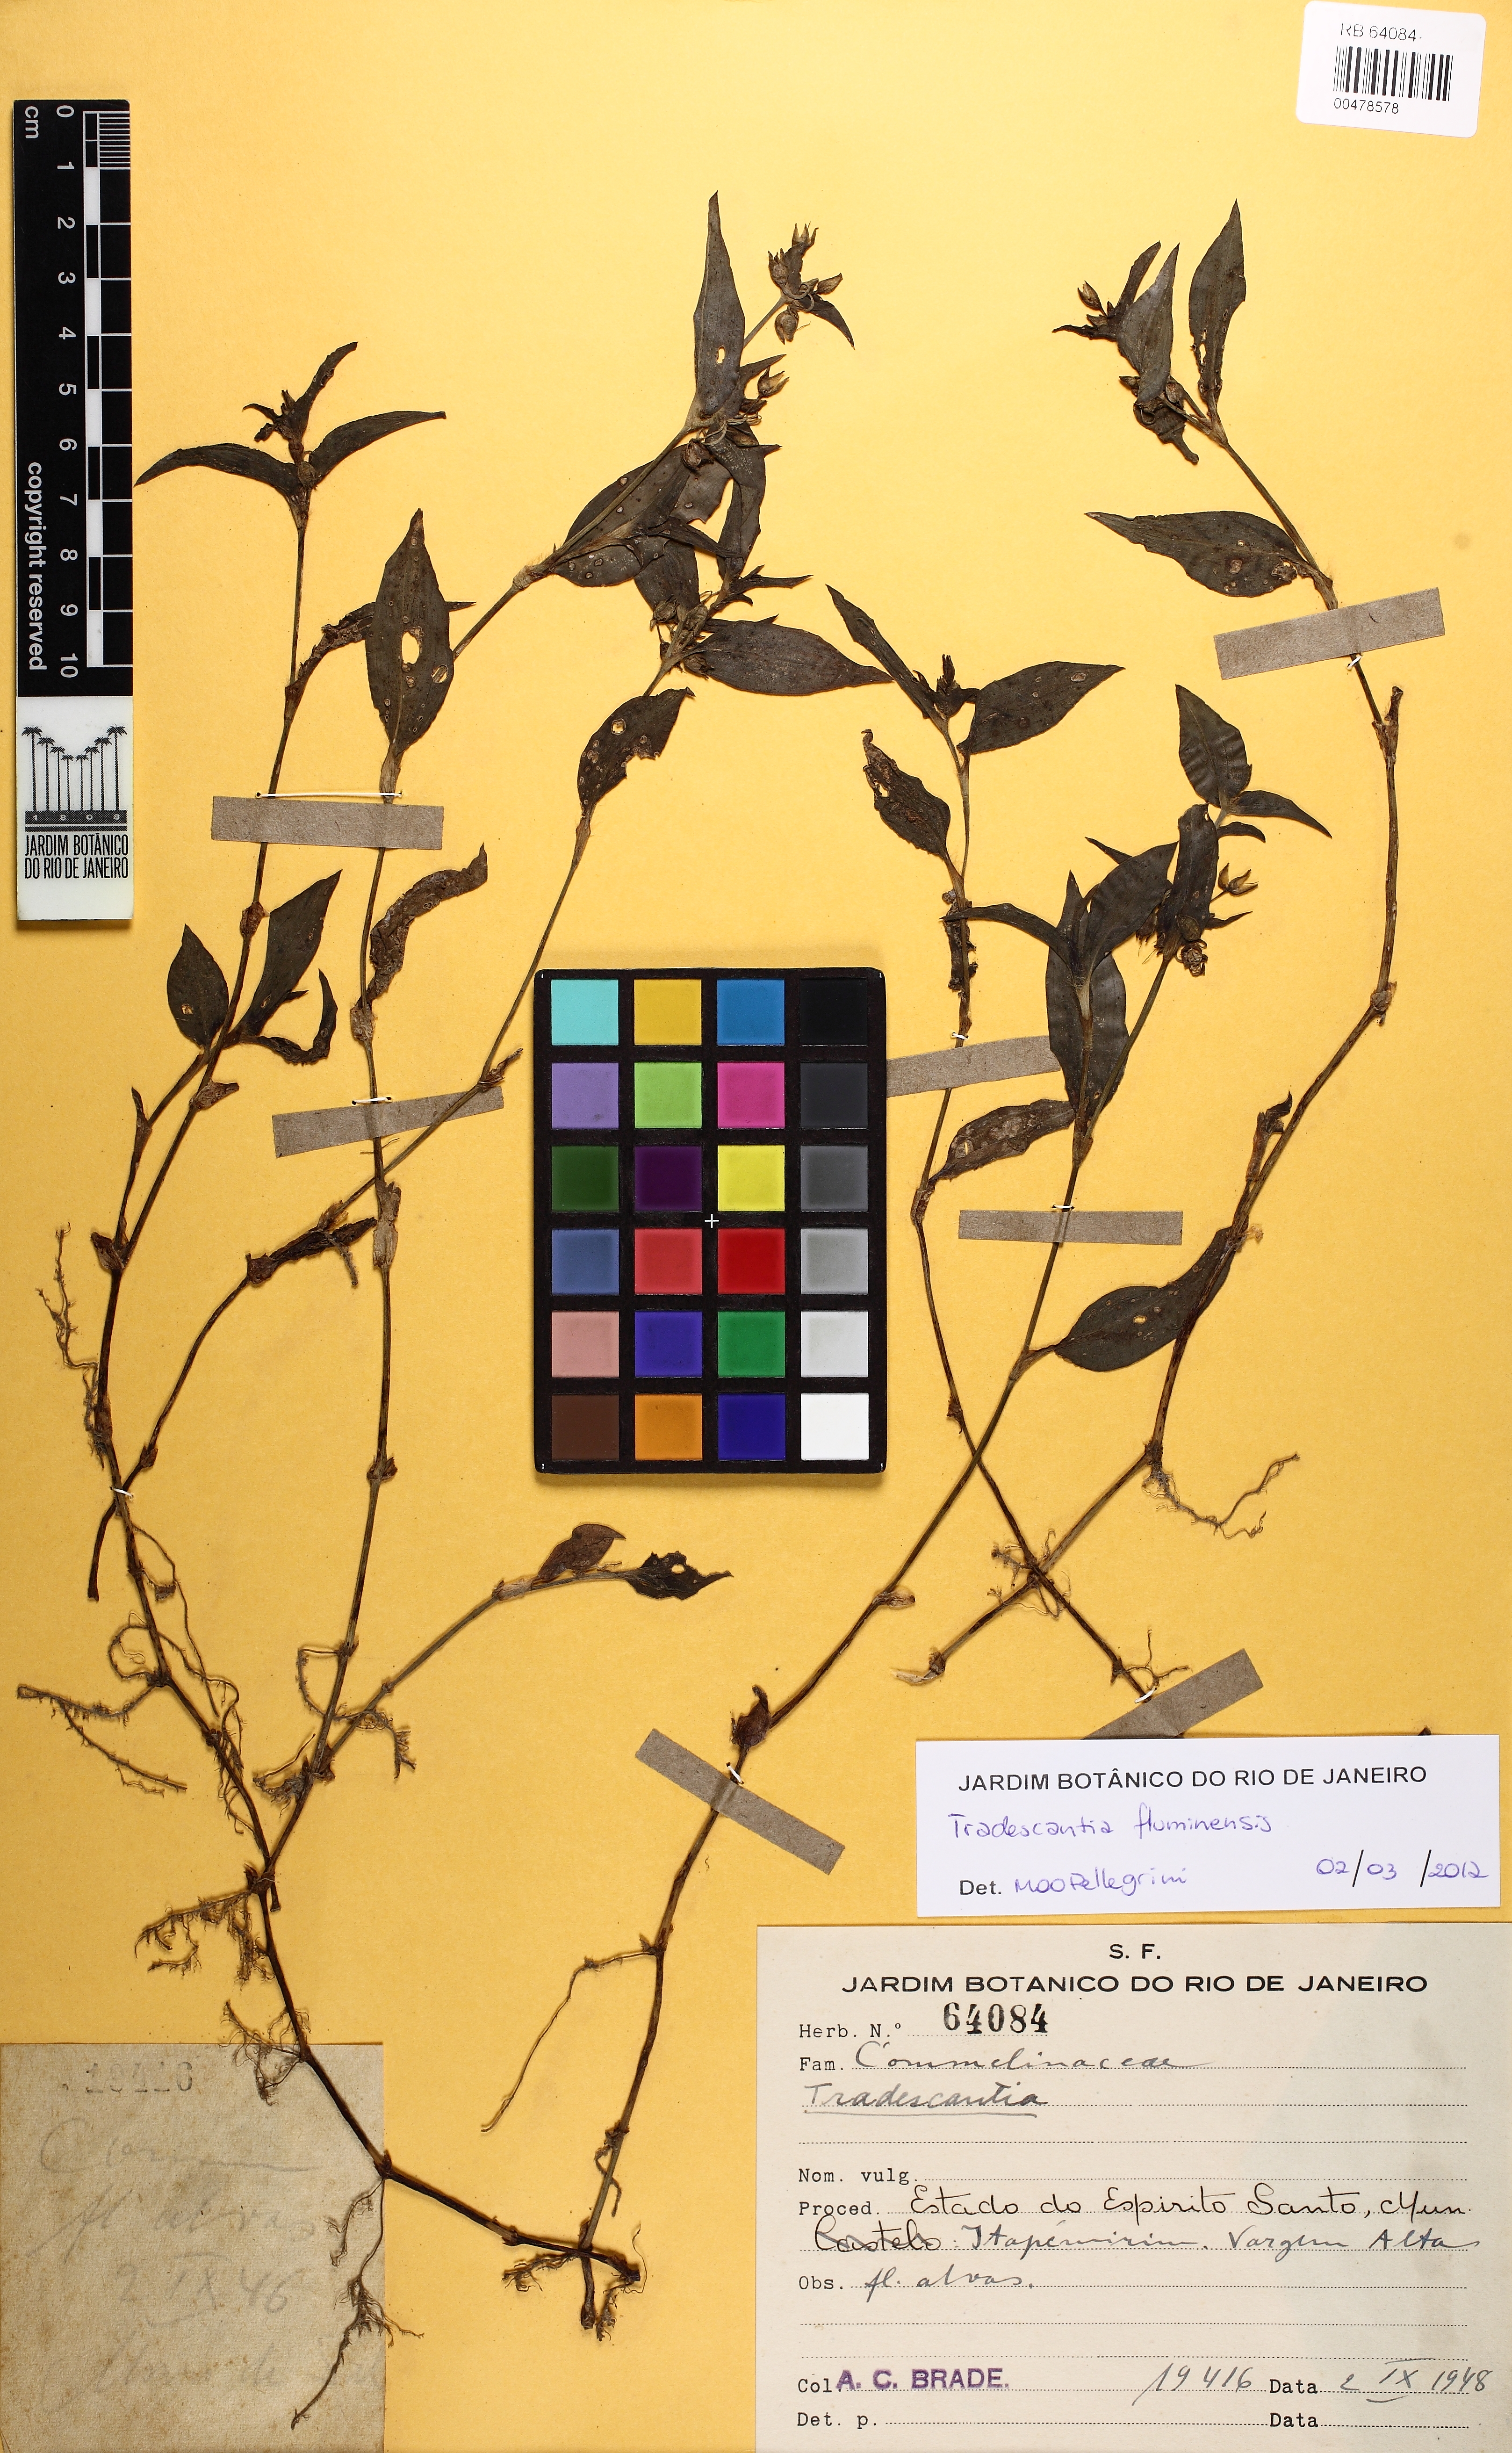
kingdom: Plantae
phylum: Tracheophyta
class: Liliopsida
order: Commelinales
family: Commelinaceae
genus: Tradescantia
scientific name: Tradescantia fluminensis
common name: Wandering-jew
